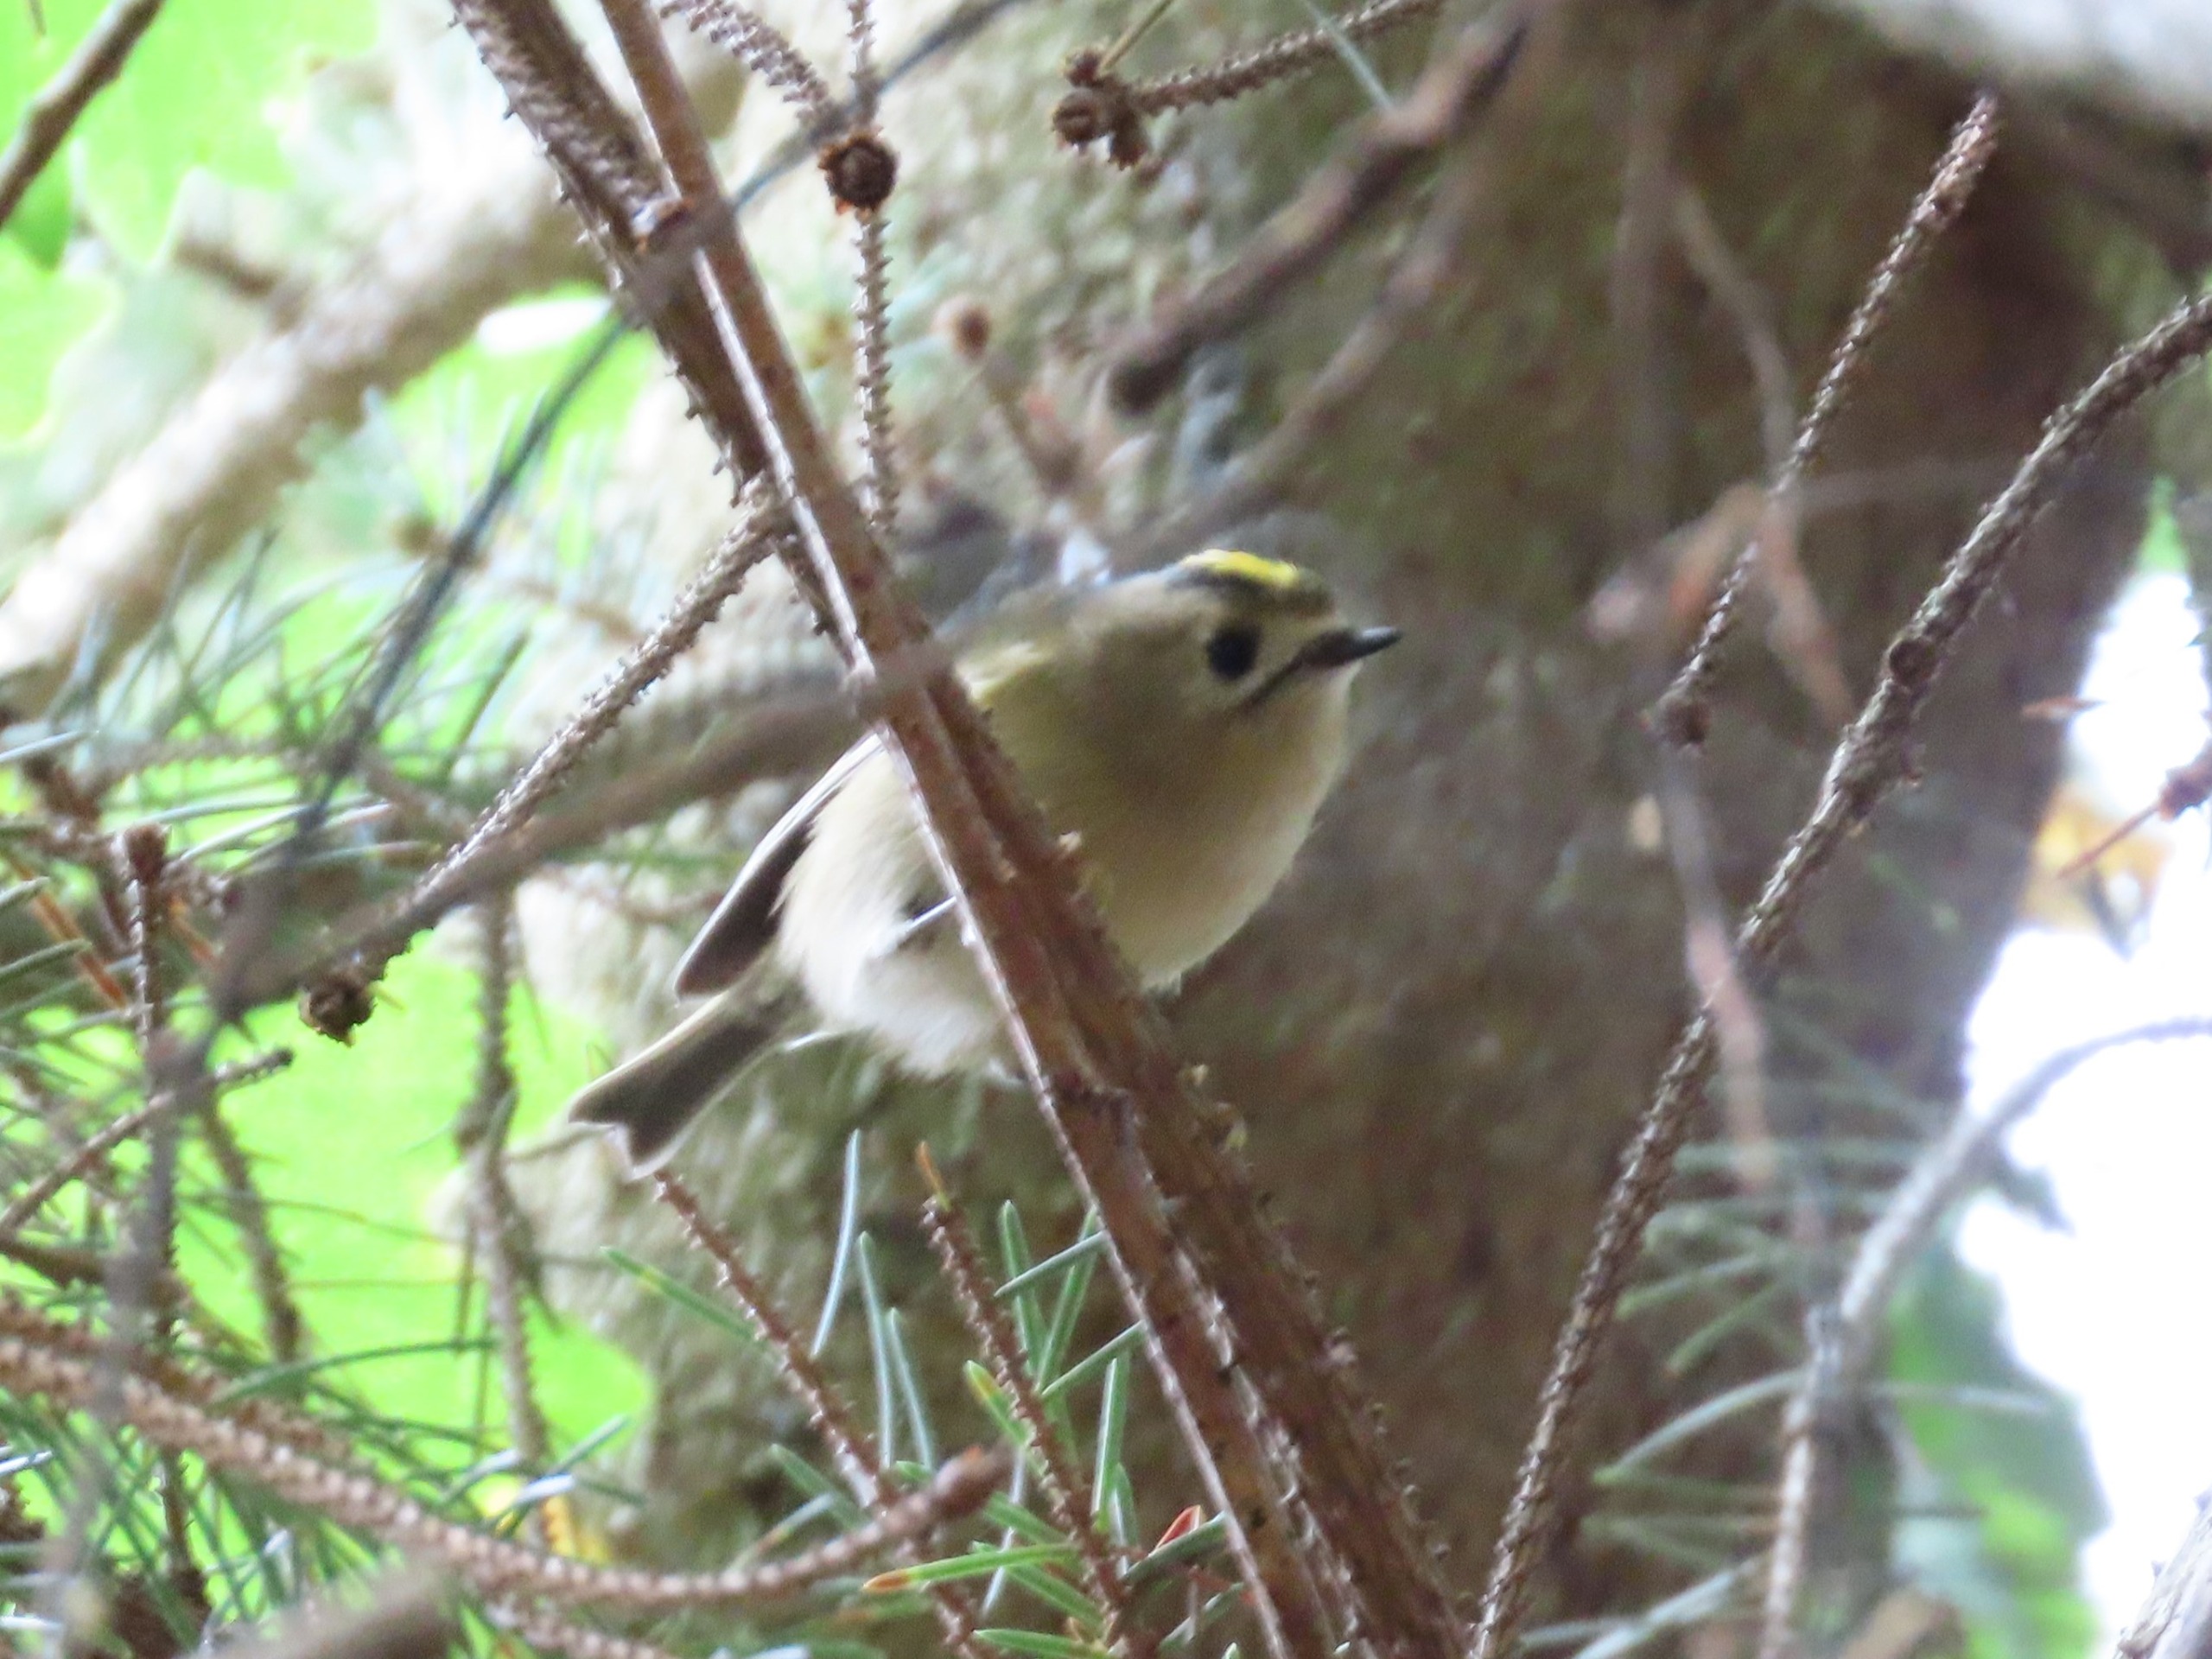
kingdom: Animalia
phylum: Chordata
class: Aves
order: Passeriformes
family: Regulidae
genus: Regulus
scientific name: Regulus regulus
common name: Fuglekonge
